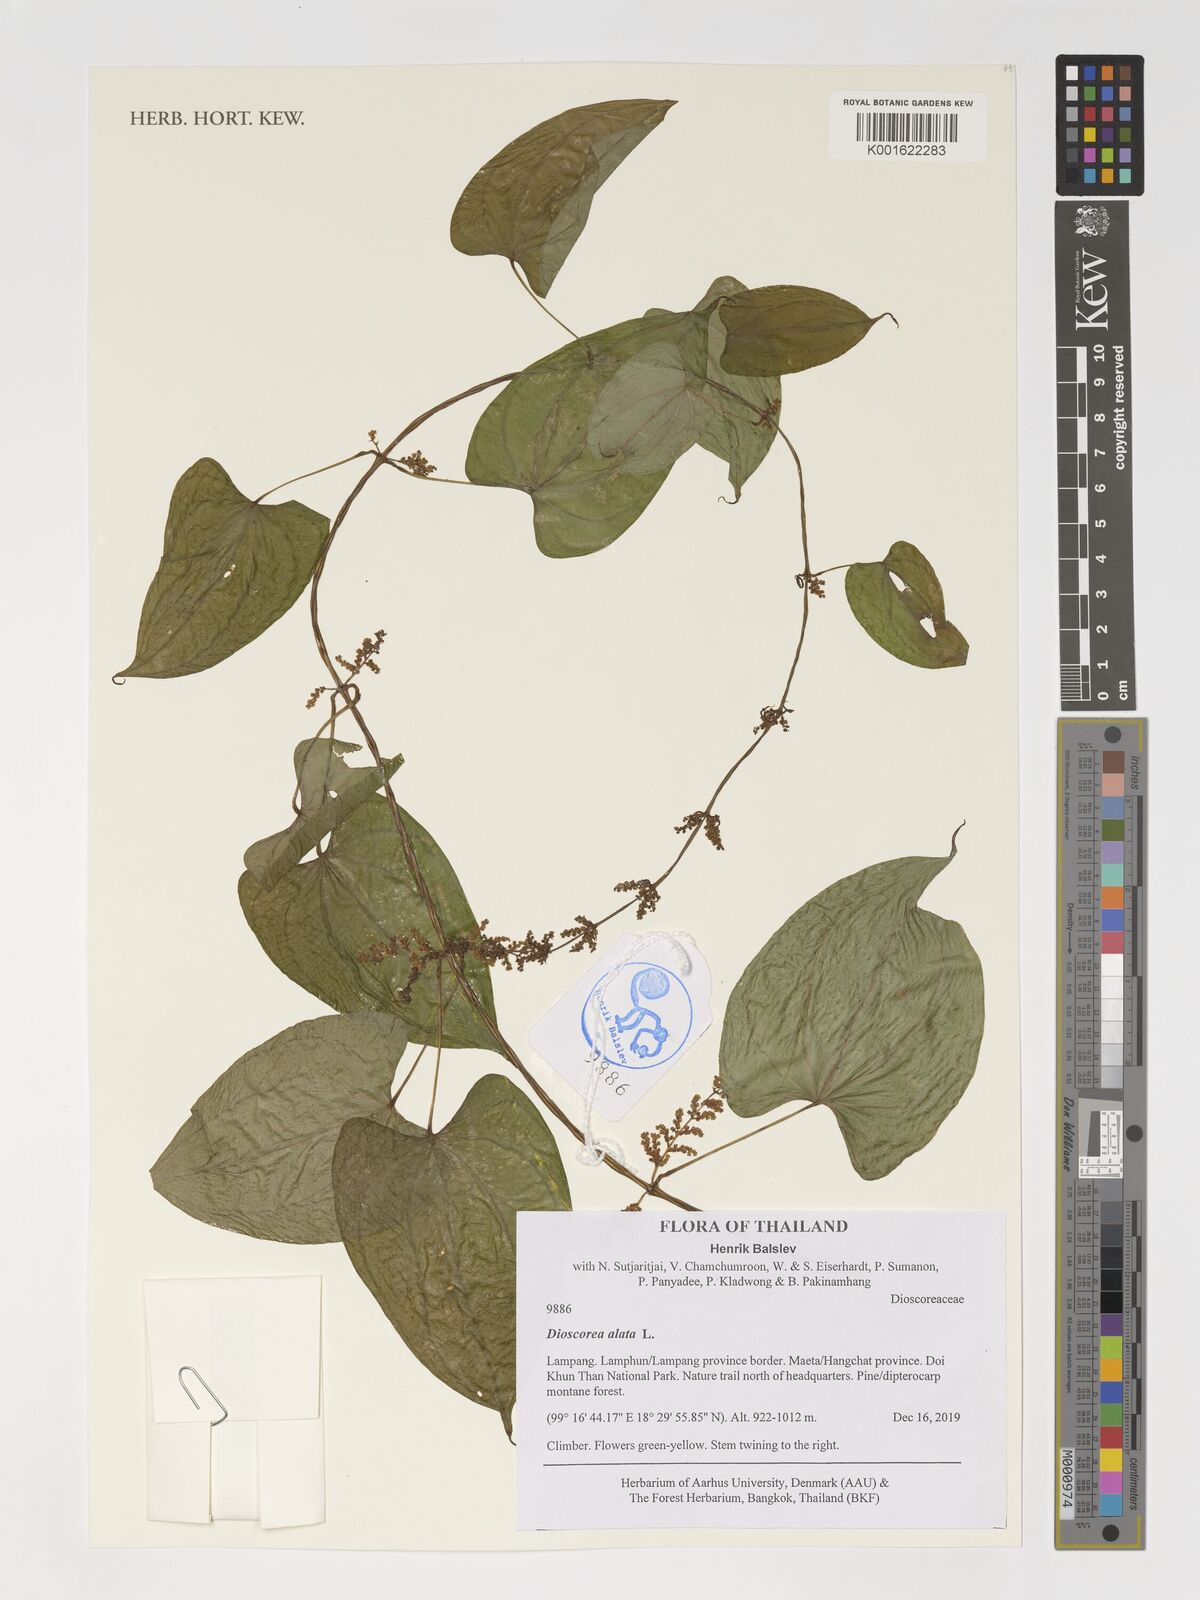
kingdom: Plantae
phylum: Tracheophyta
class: Liliopsida
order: Dioscoreales
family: Dioscoreaceae
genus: Dioscorea
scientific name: Dioscorea alata
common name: Water yam
